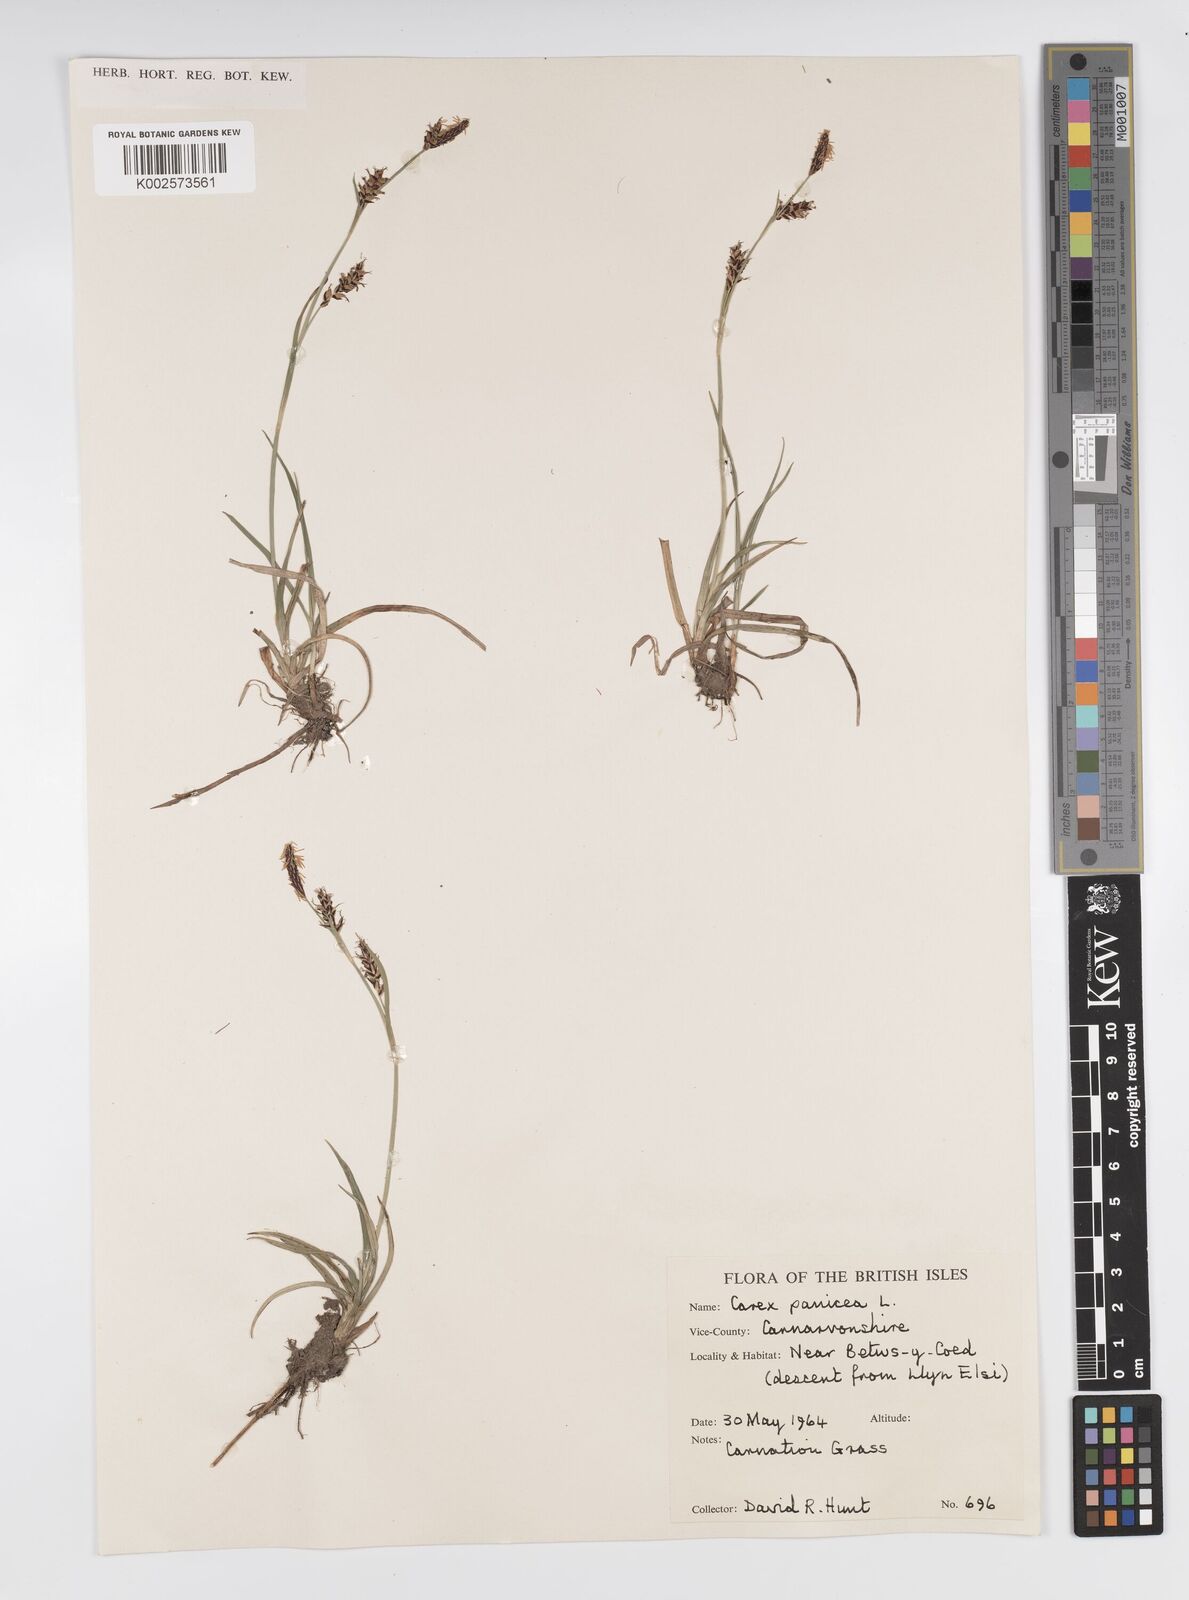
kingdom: Plantae
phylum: Tracheophyta
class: Liliopsida
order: Poales
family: Cyperaceae
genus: Carex
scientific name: Carex panicea
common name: Carnation sedge
